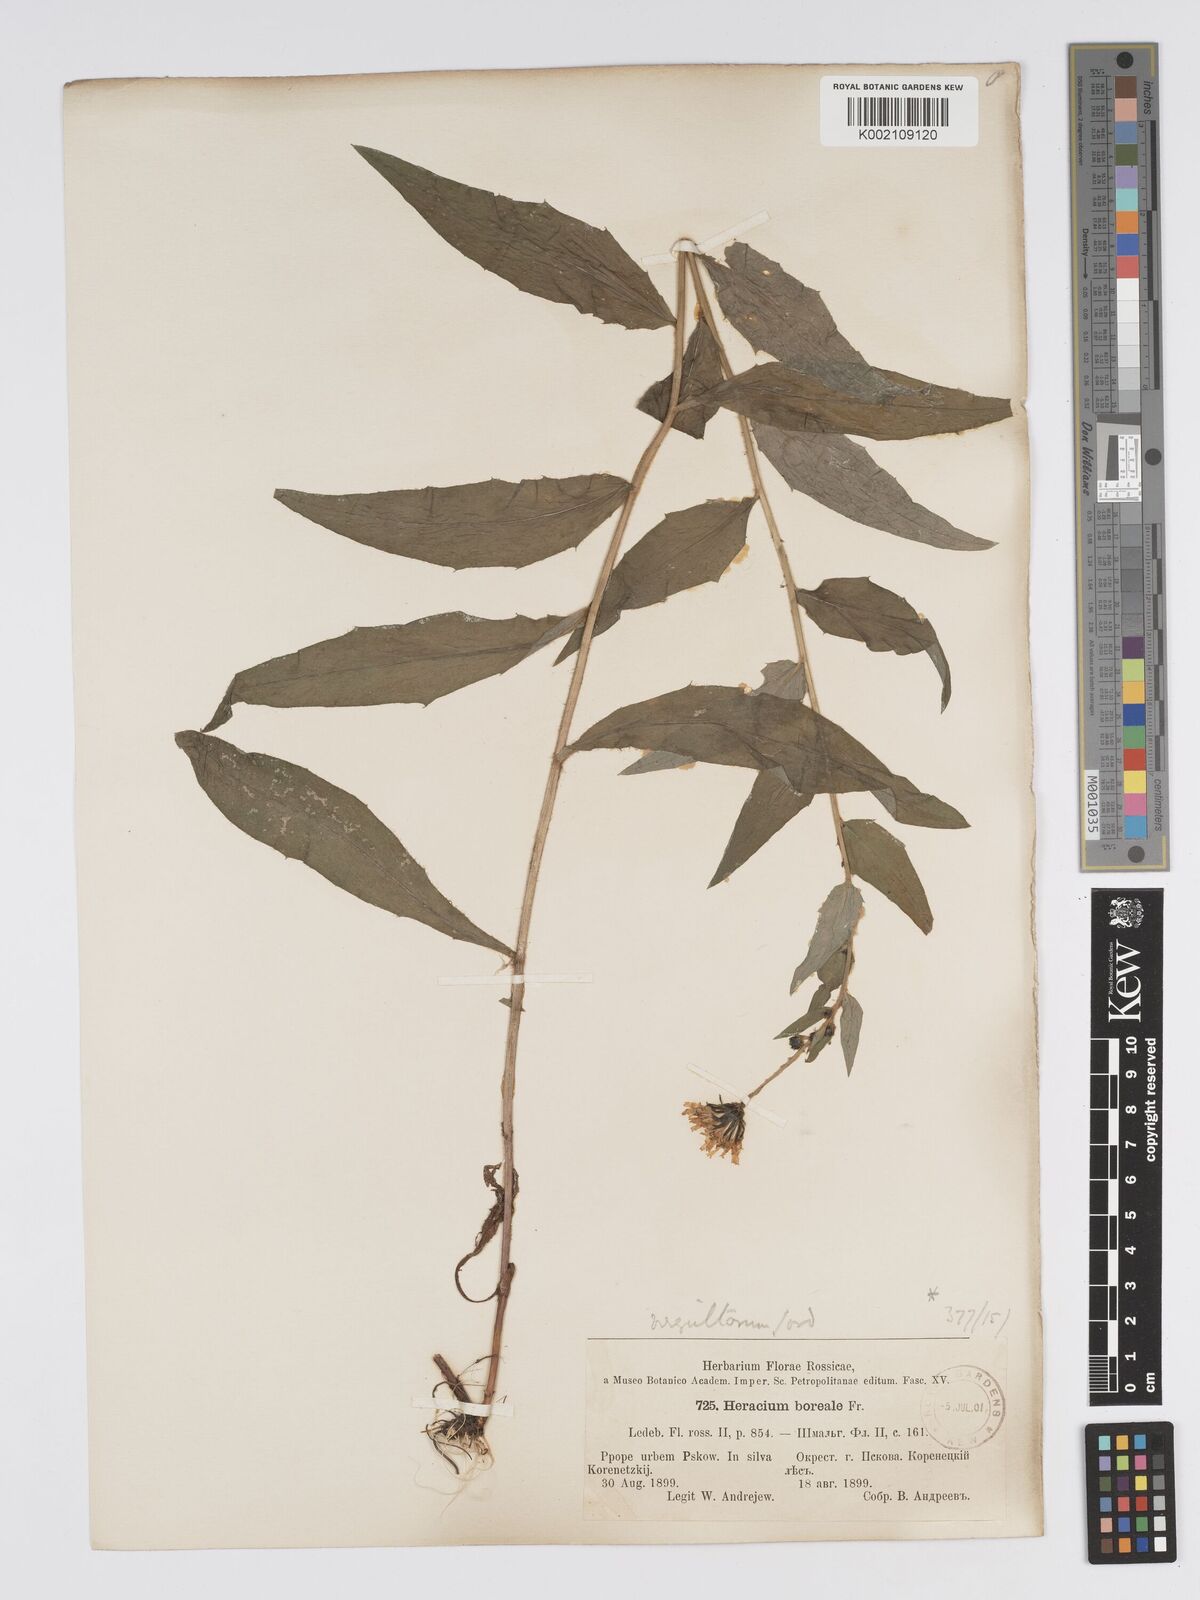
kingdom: Plantae
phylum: Tracheophyta
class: Magnoliopsida
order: Asterales
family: Asteraceae
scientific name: Asteraceae
